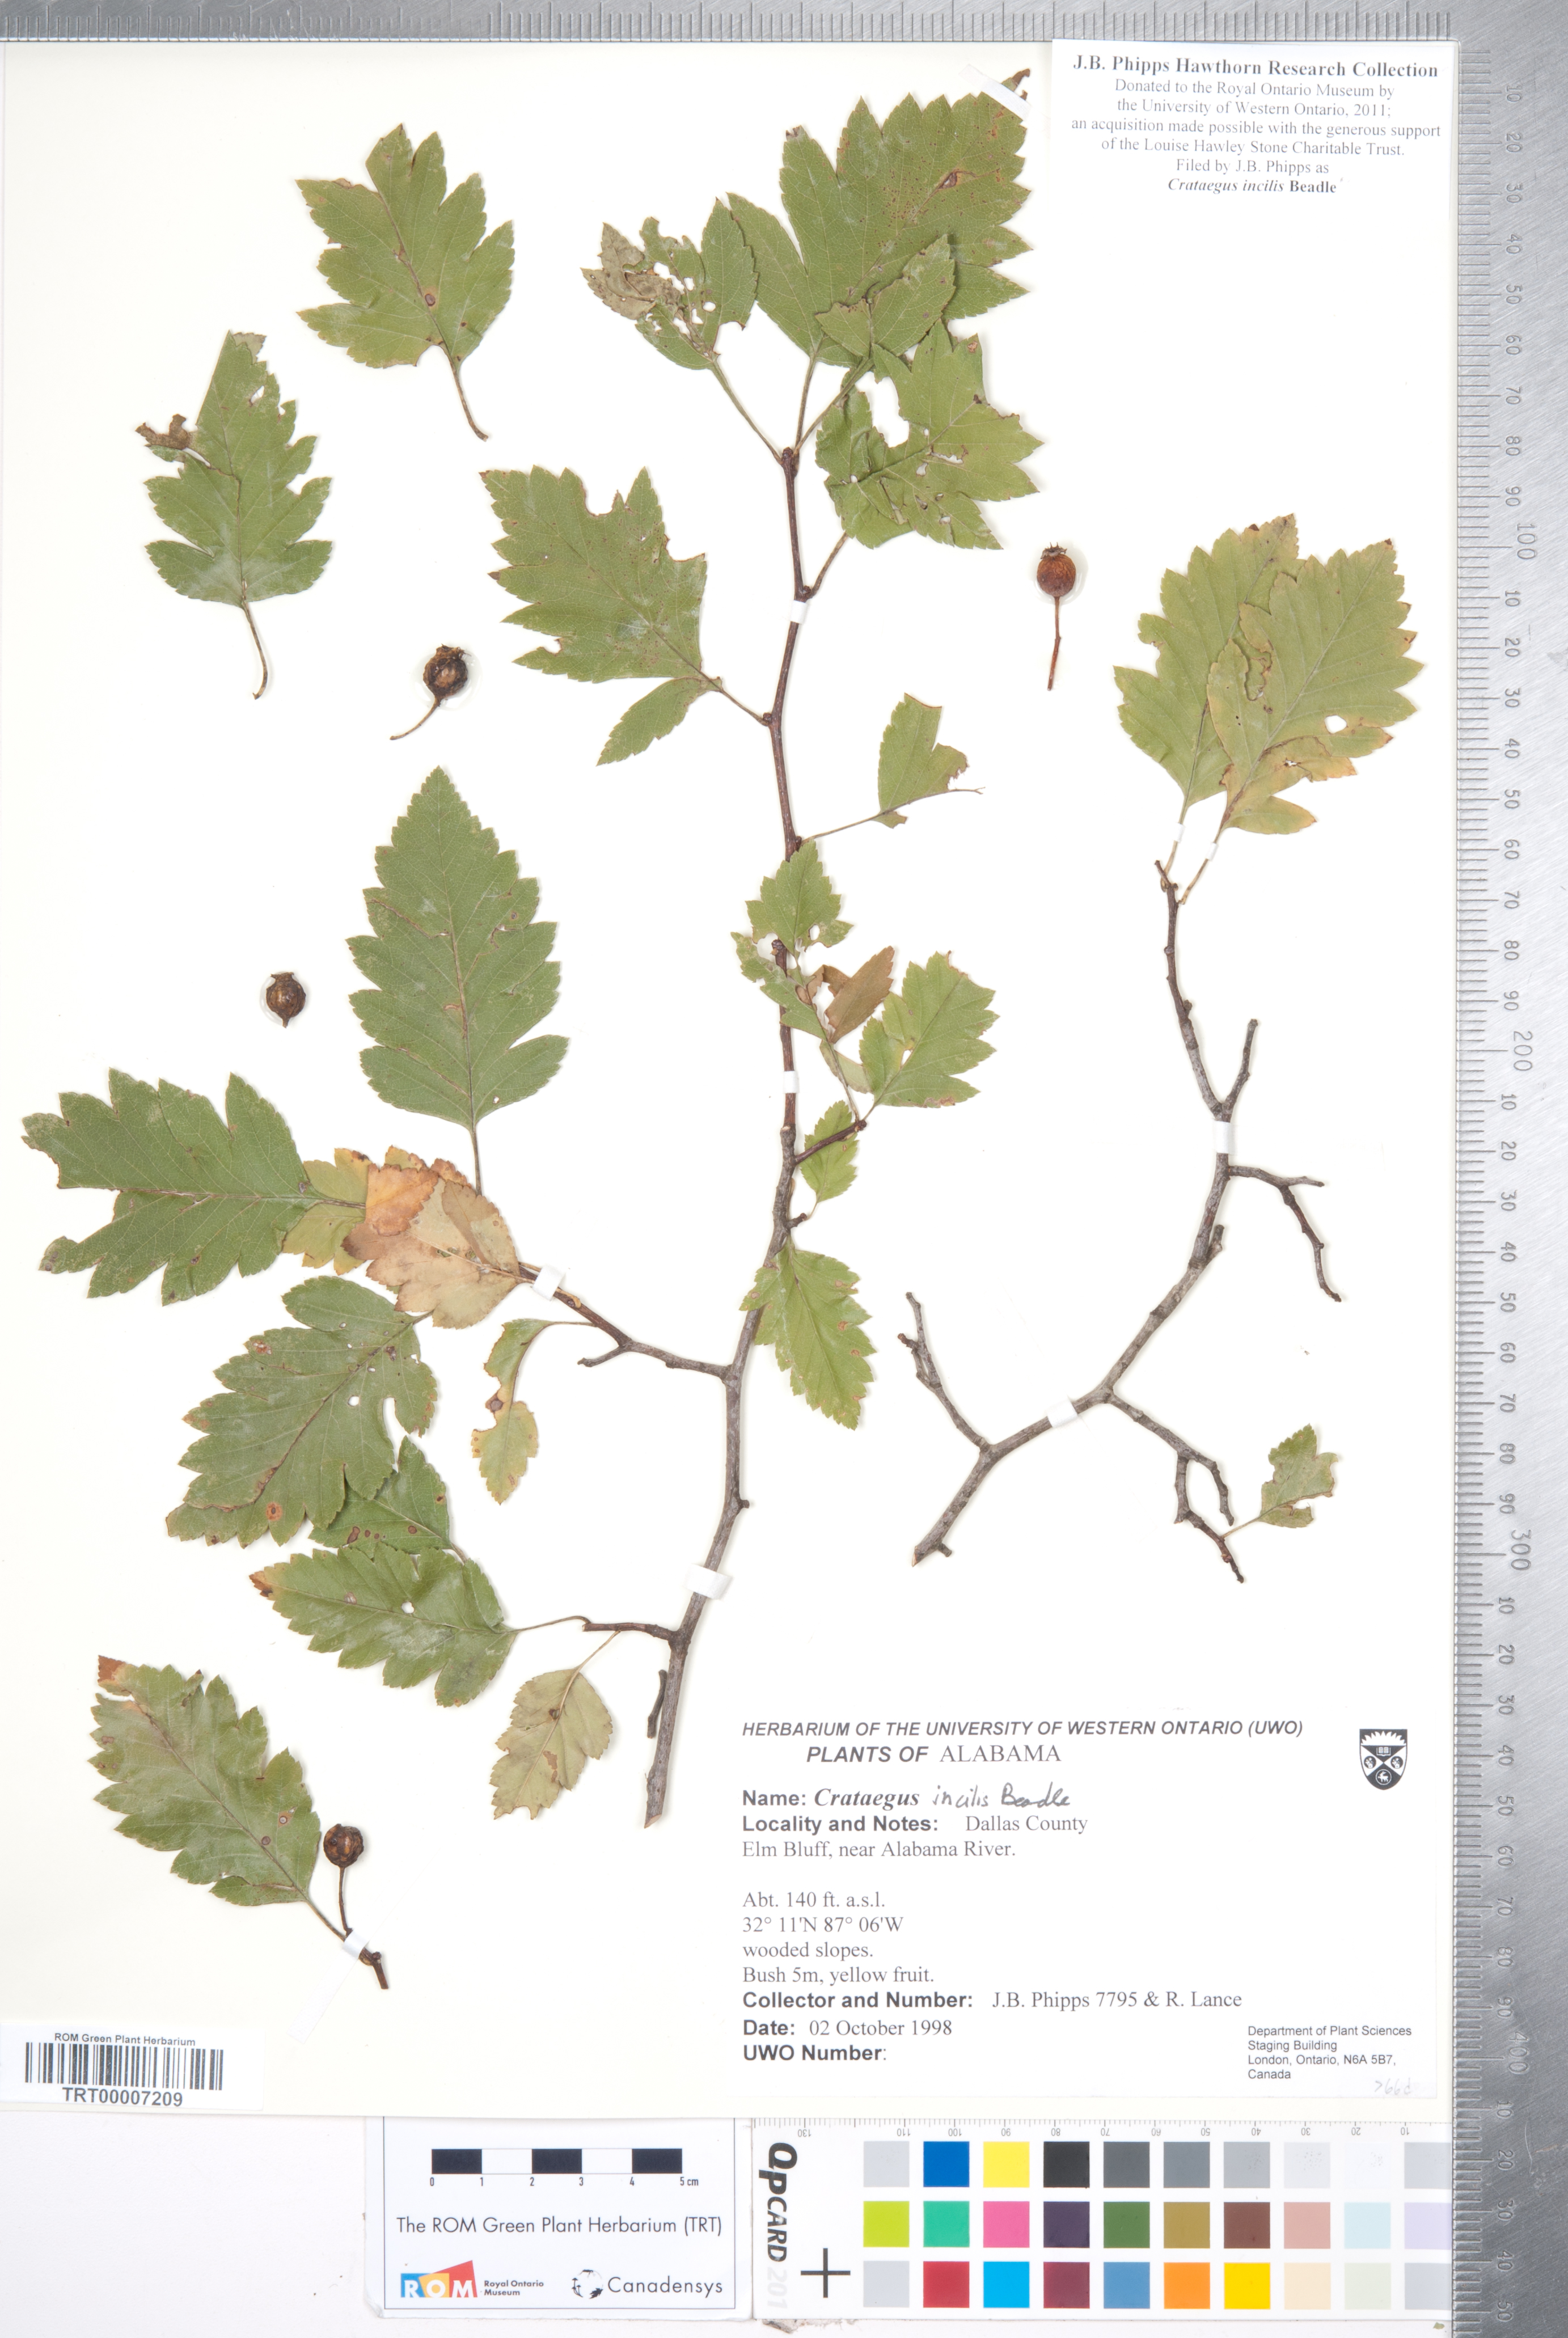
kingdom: Plantae
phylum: Tracheophyta
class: Magnoliopsida
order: Rosales
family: Rosaceae
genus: Crataegus
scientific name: Crataegus pulcherrima
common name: Beautiful hawthorn
